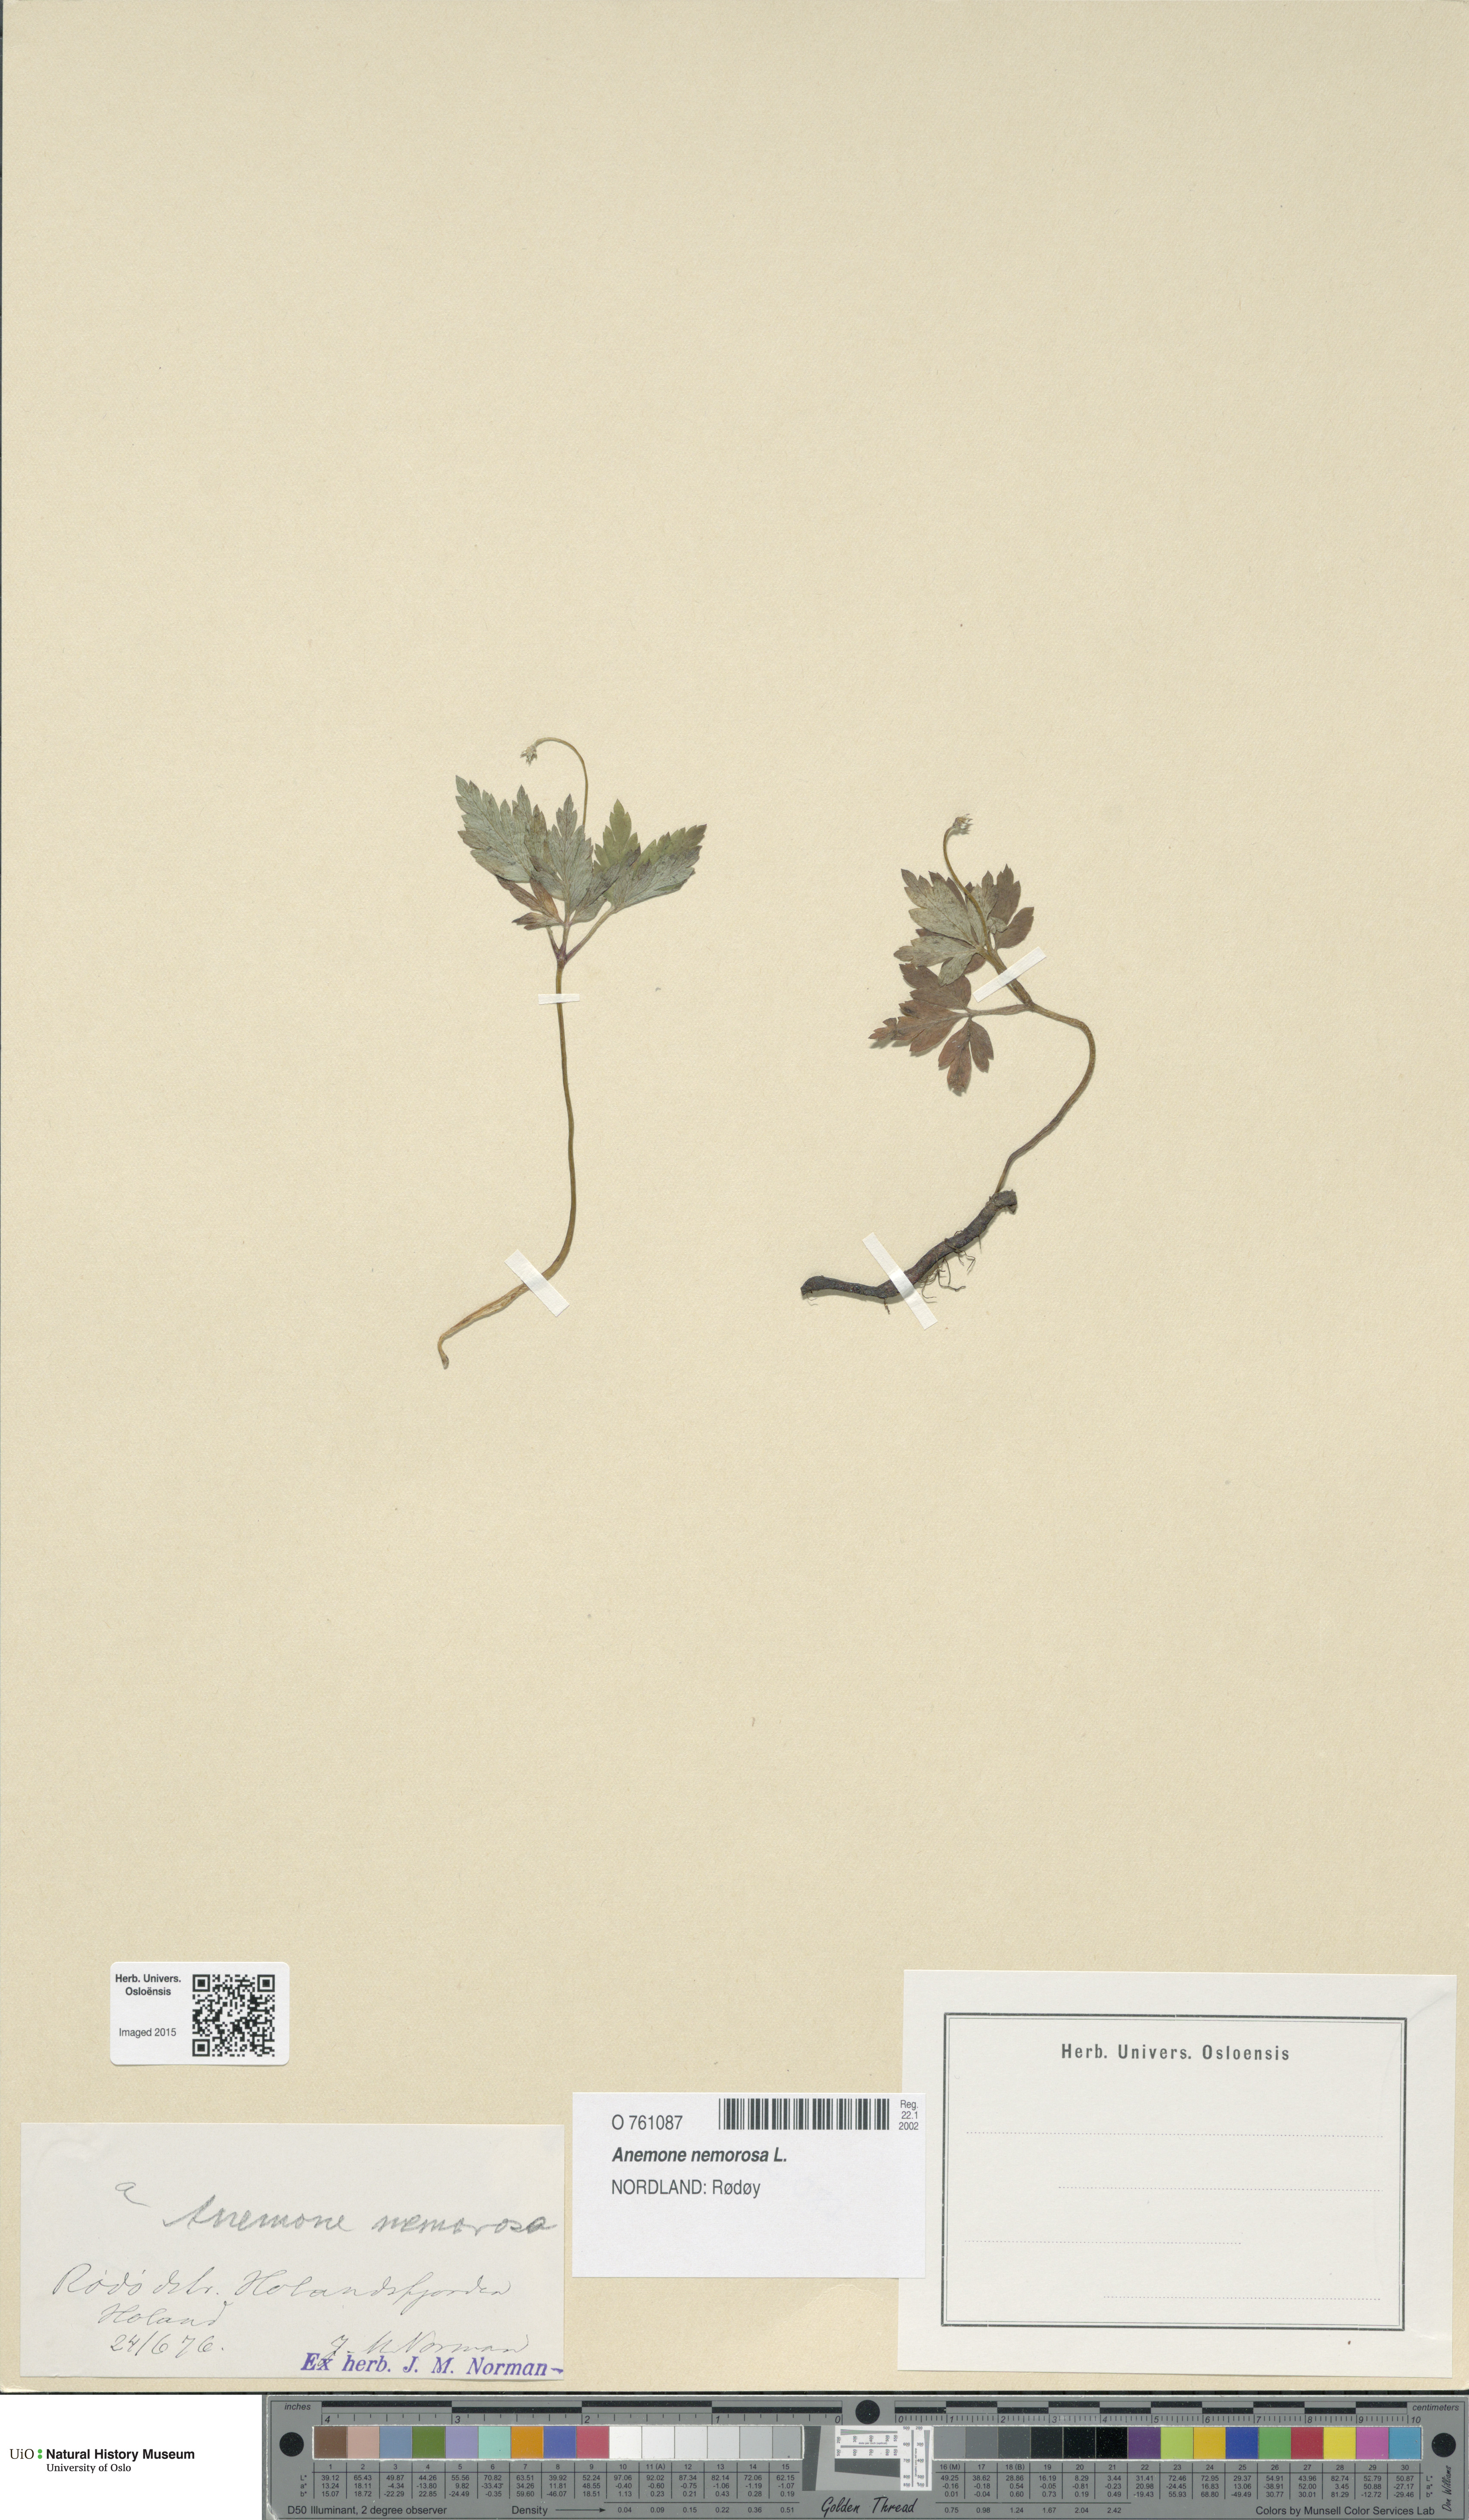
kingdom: Plantae
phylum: Tracheophyta
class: Magnoliopsida
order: Ranunculales
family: Ranunculaceae
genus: Anemone
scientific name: Anemone nemorosa
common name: Wood anemone
